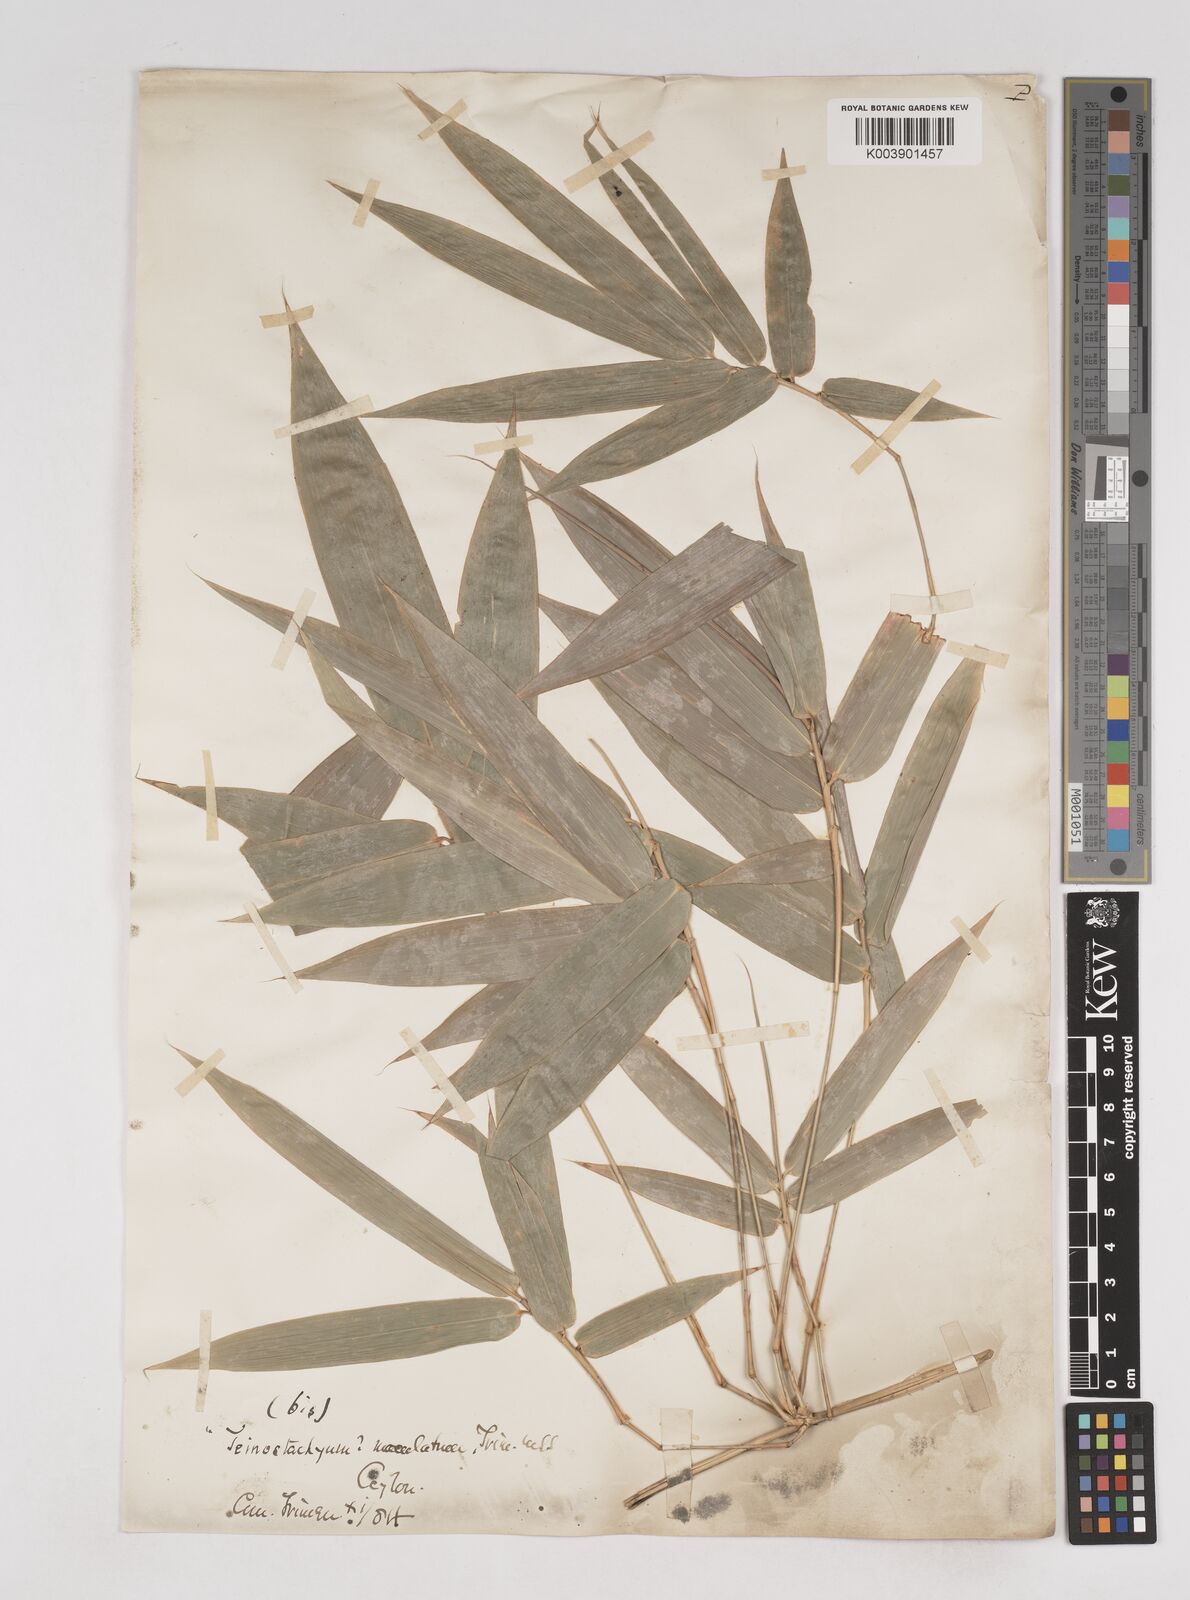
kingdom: Plantae
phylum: Tracheophyta
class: Liliopsida
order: Poales
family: Poaceae
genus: Ochlandra
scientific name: Ochlandra stridula
